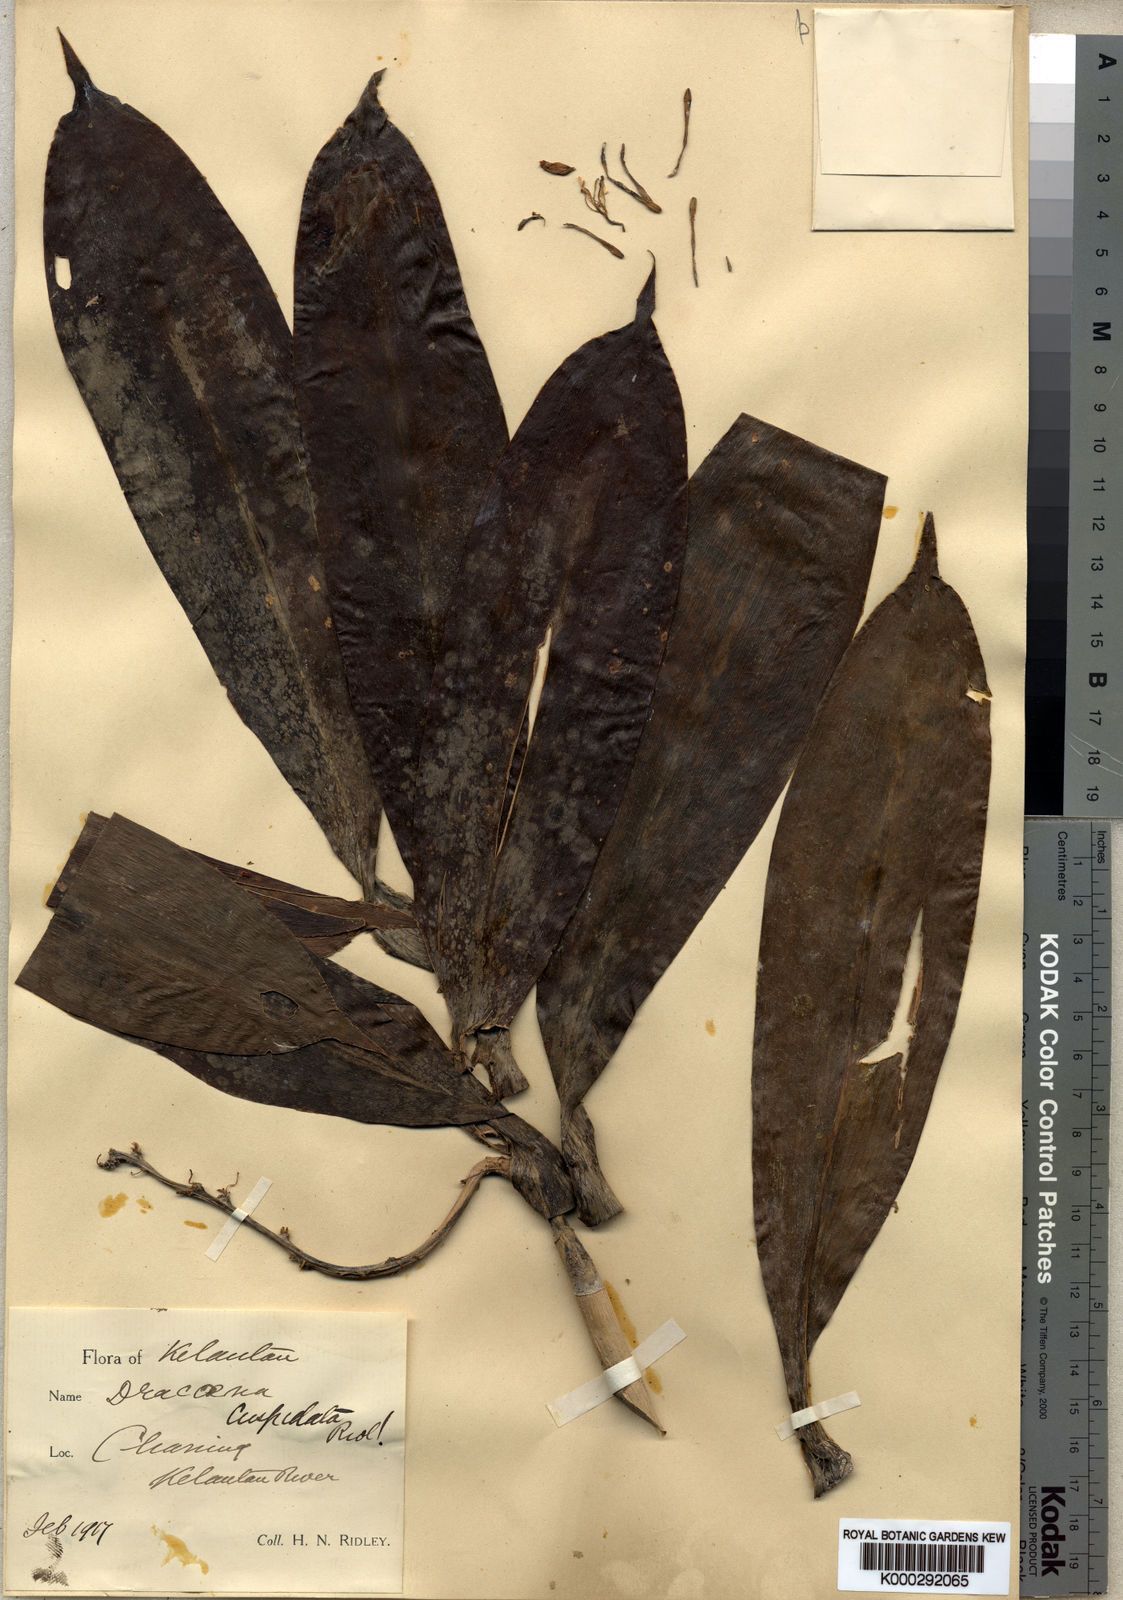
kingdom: Plantae
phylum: Tracheophyta
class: Liliopsida
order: Asparagales
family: Asparagaceae
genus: Dracaena
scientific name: Dracaena cuspidata
